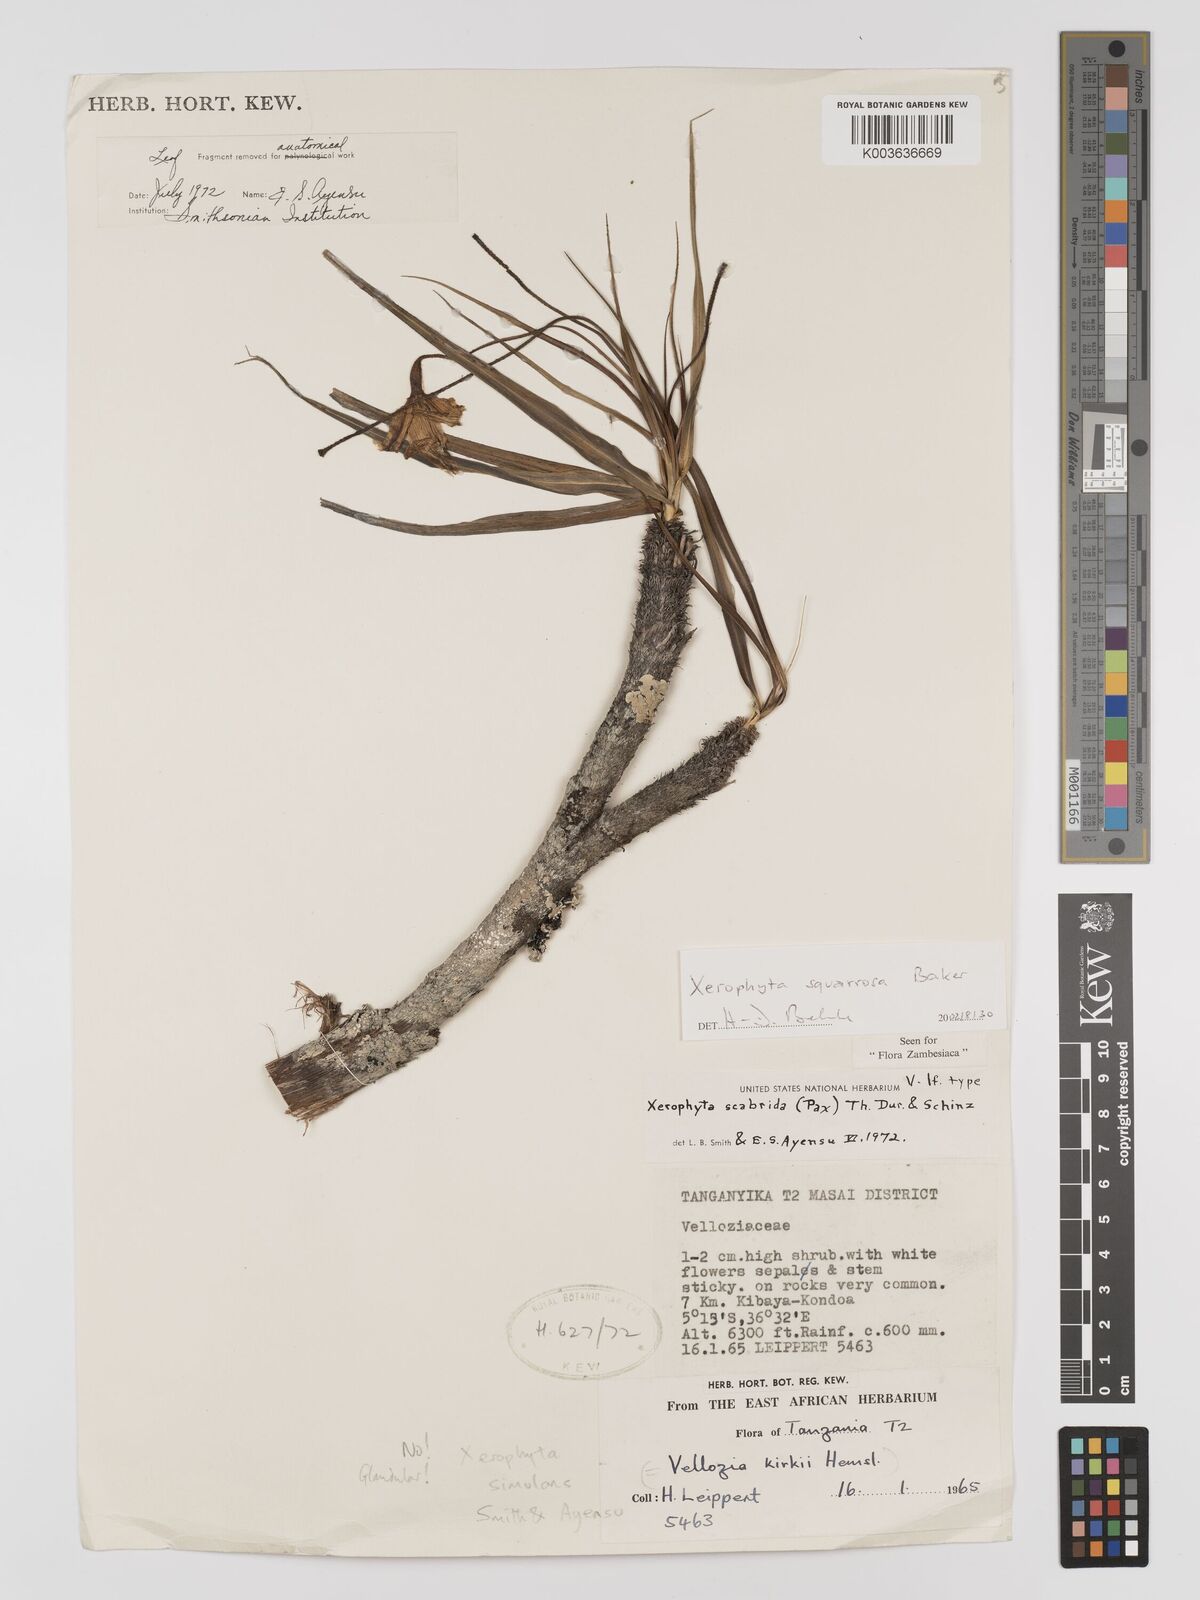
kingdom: Plantae
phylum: Tracheophyta
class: Liliopsida
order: Pandanales
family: Velloziaceae
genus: Xerophyta
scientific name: Xerophyta squarrosa
